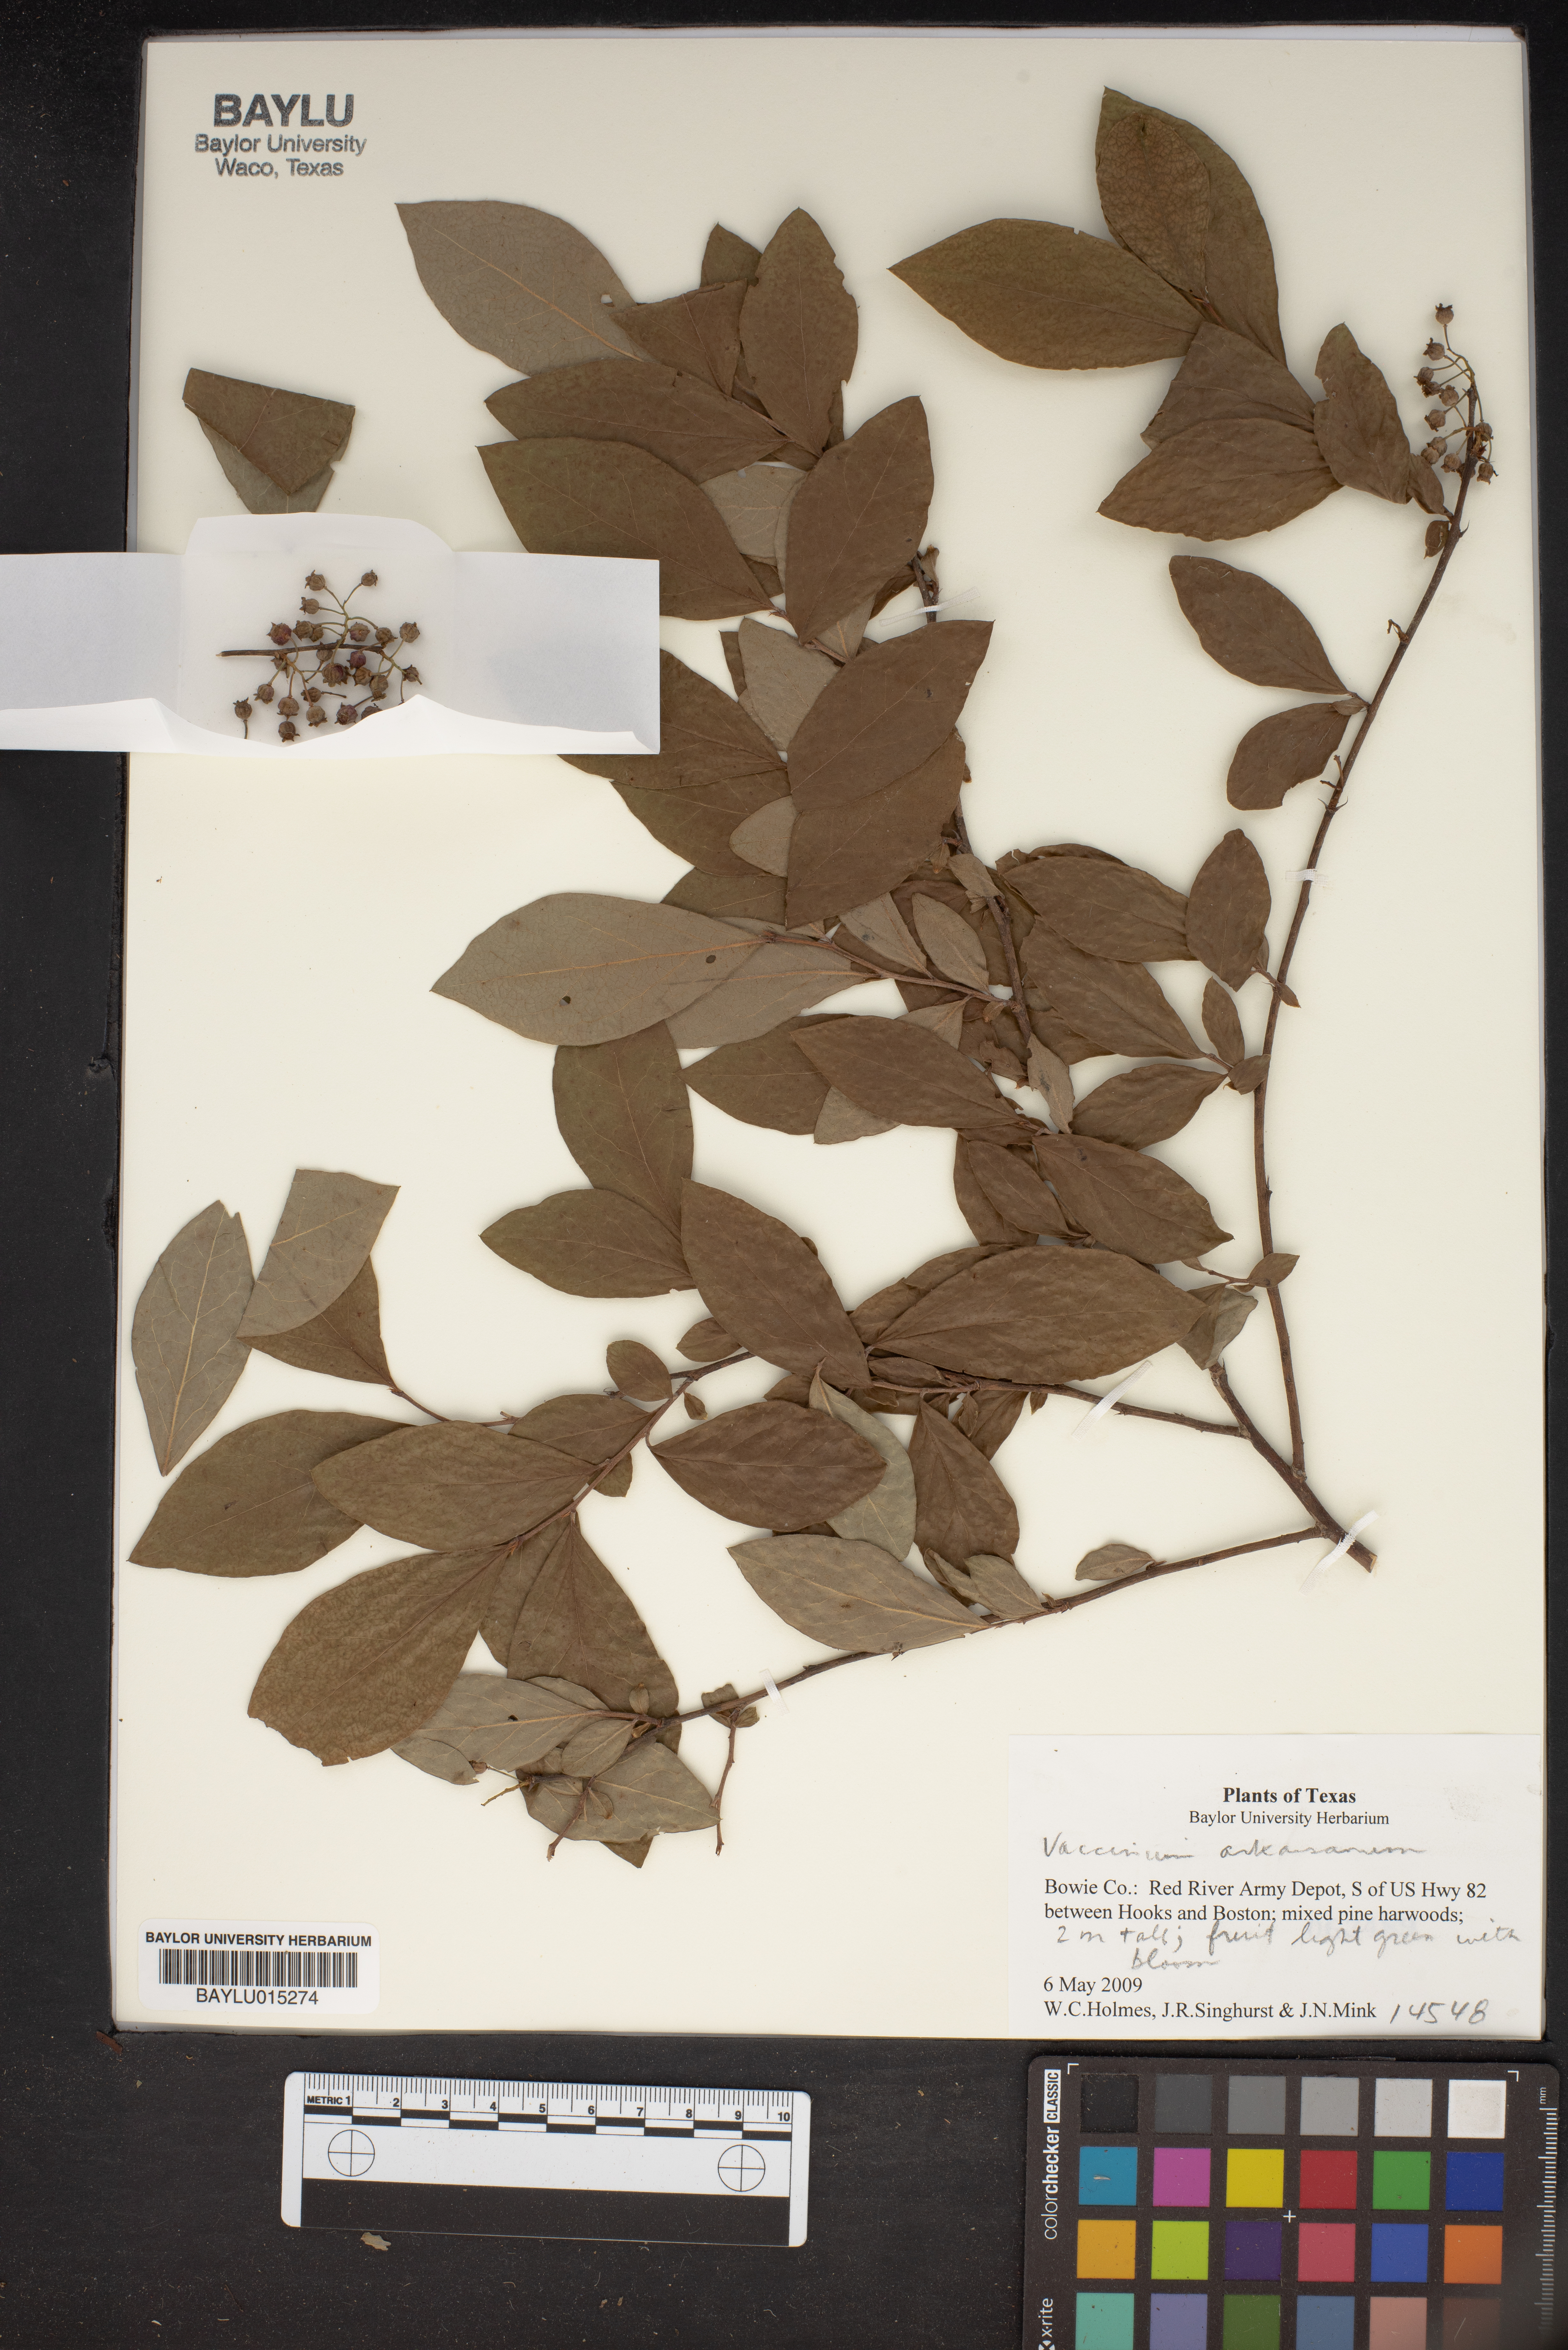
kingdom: Plantae
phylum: Tracheophyta
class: Magnoliopsida
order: Ericales
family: Ericaceae
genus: Vaccinium
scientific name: Vaccinium corymbosum
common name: Blueberry
